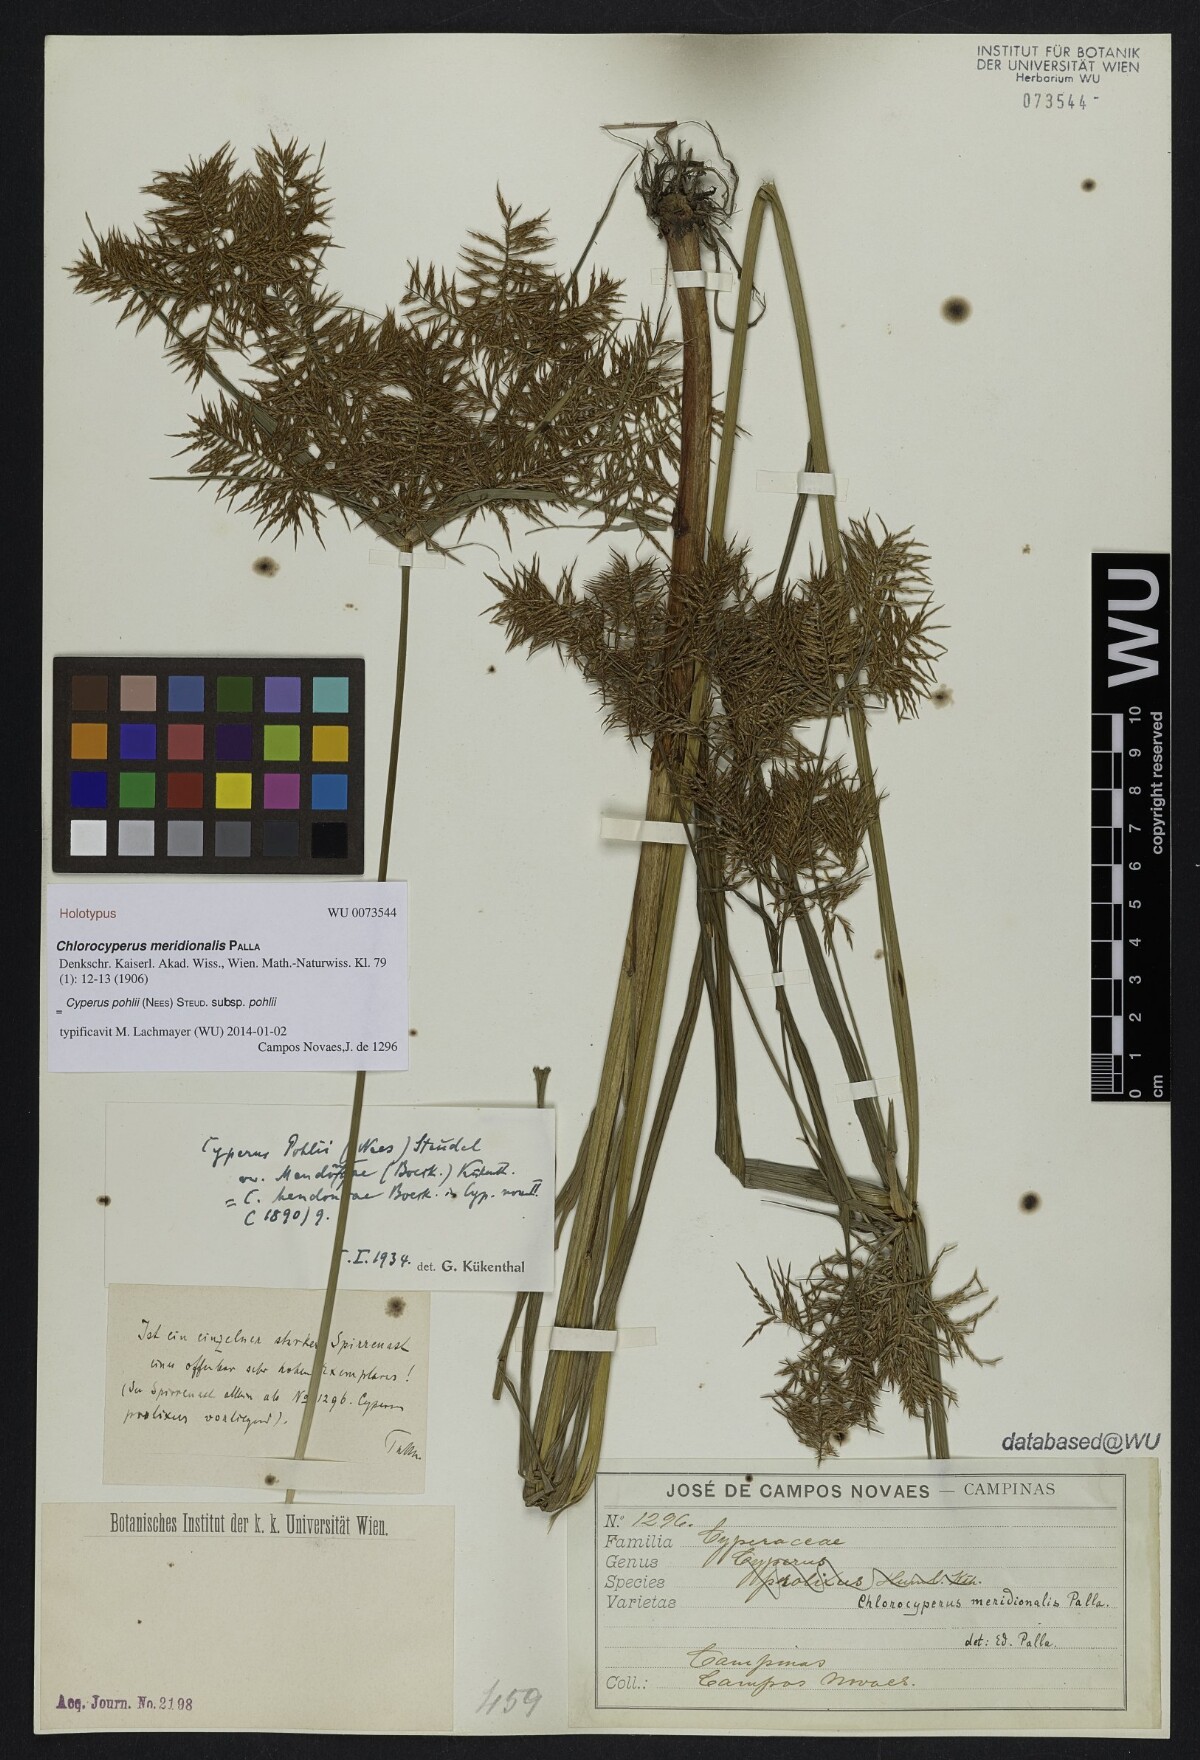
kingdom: Plantae
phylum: Tracheophyta
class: Liliopsida
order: Poales
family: Cyperaceae
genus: Cyperus
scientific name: Cyperus pohlii
